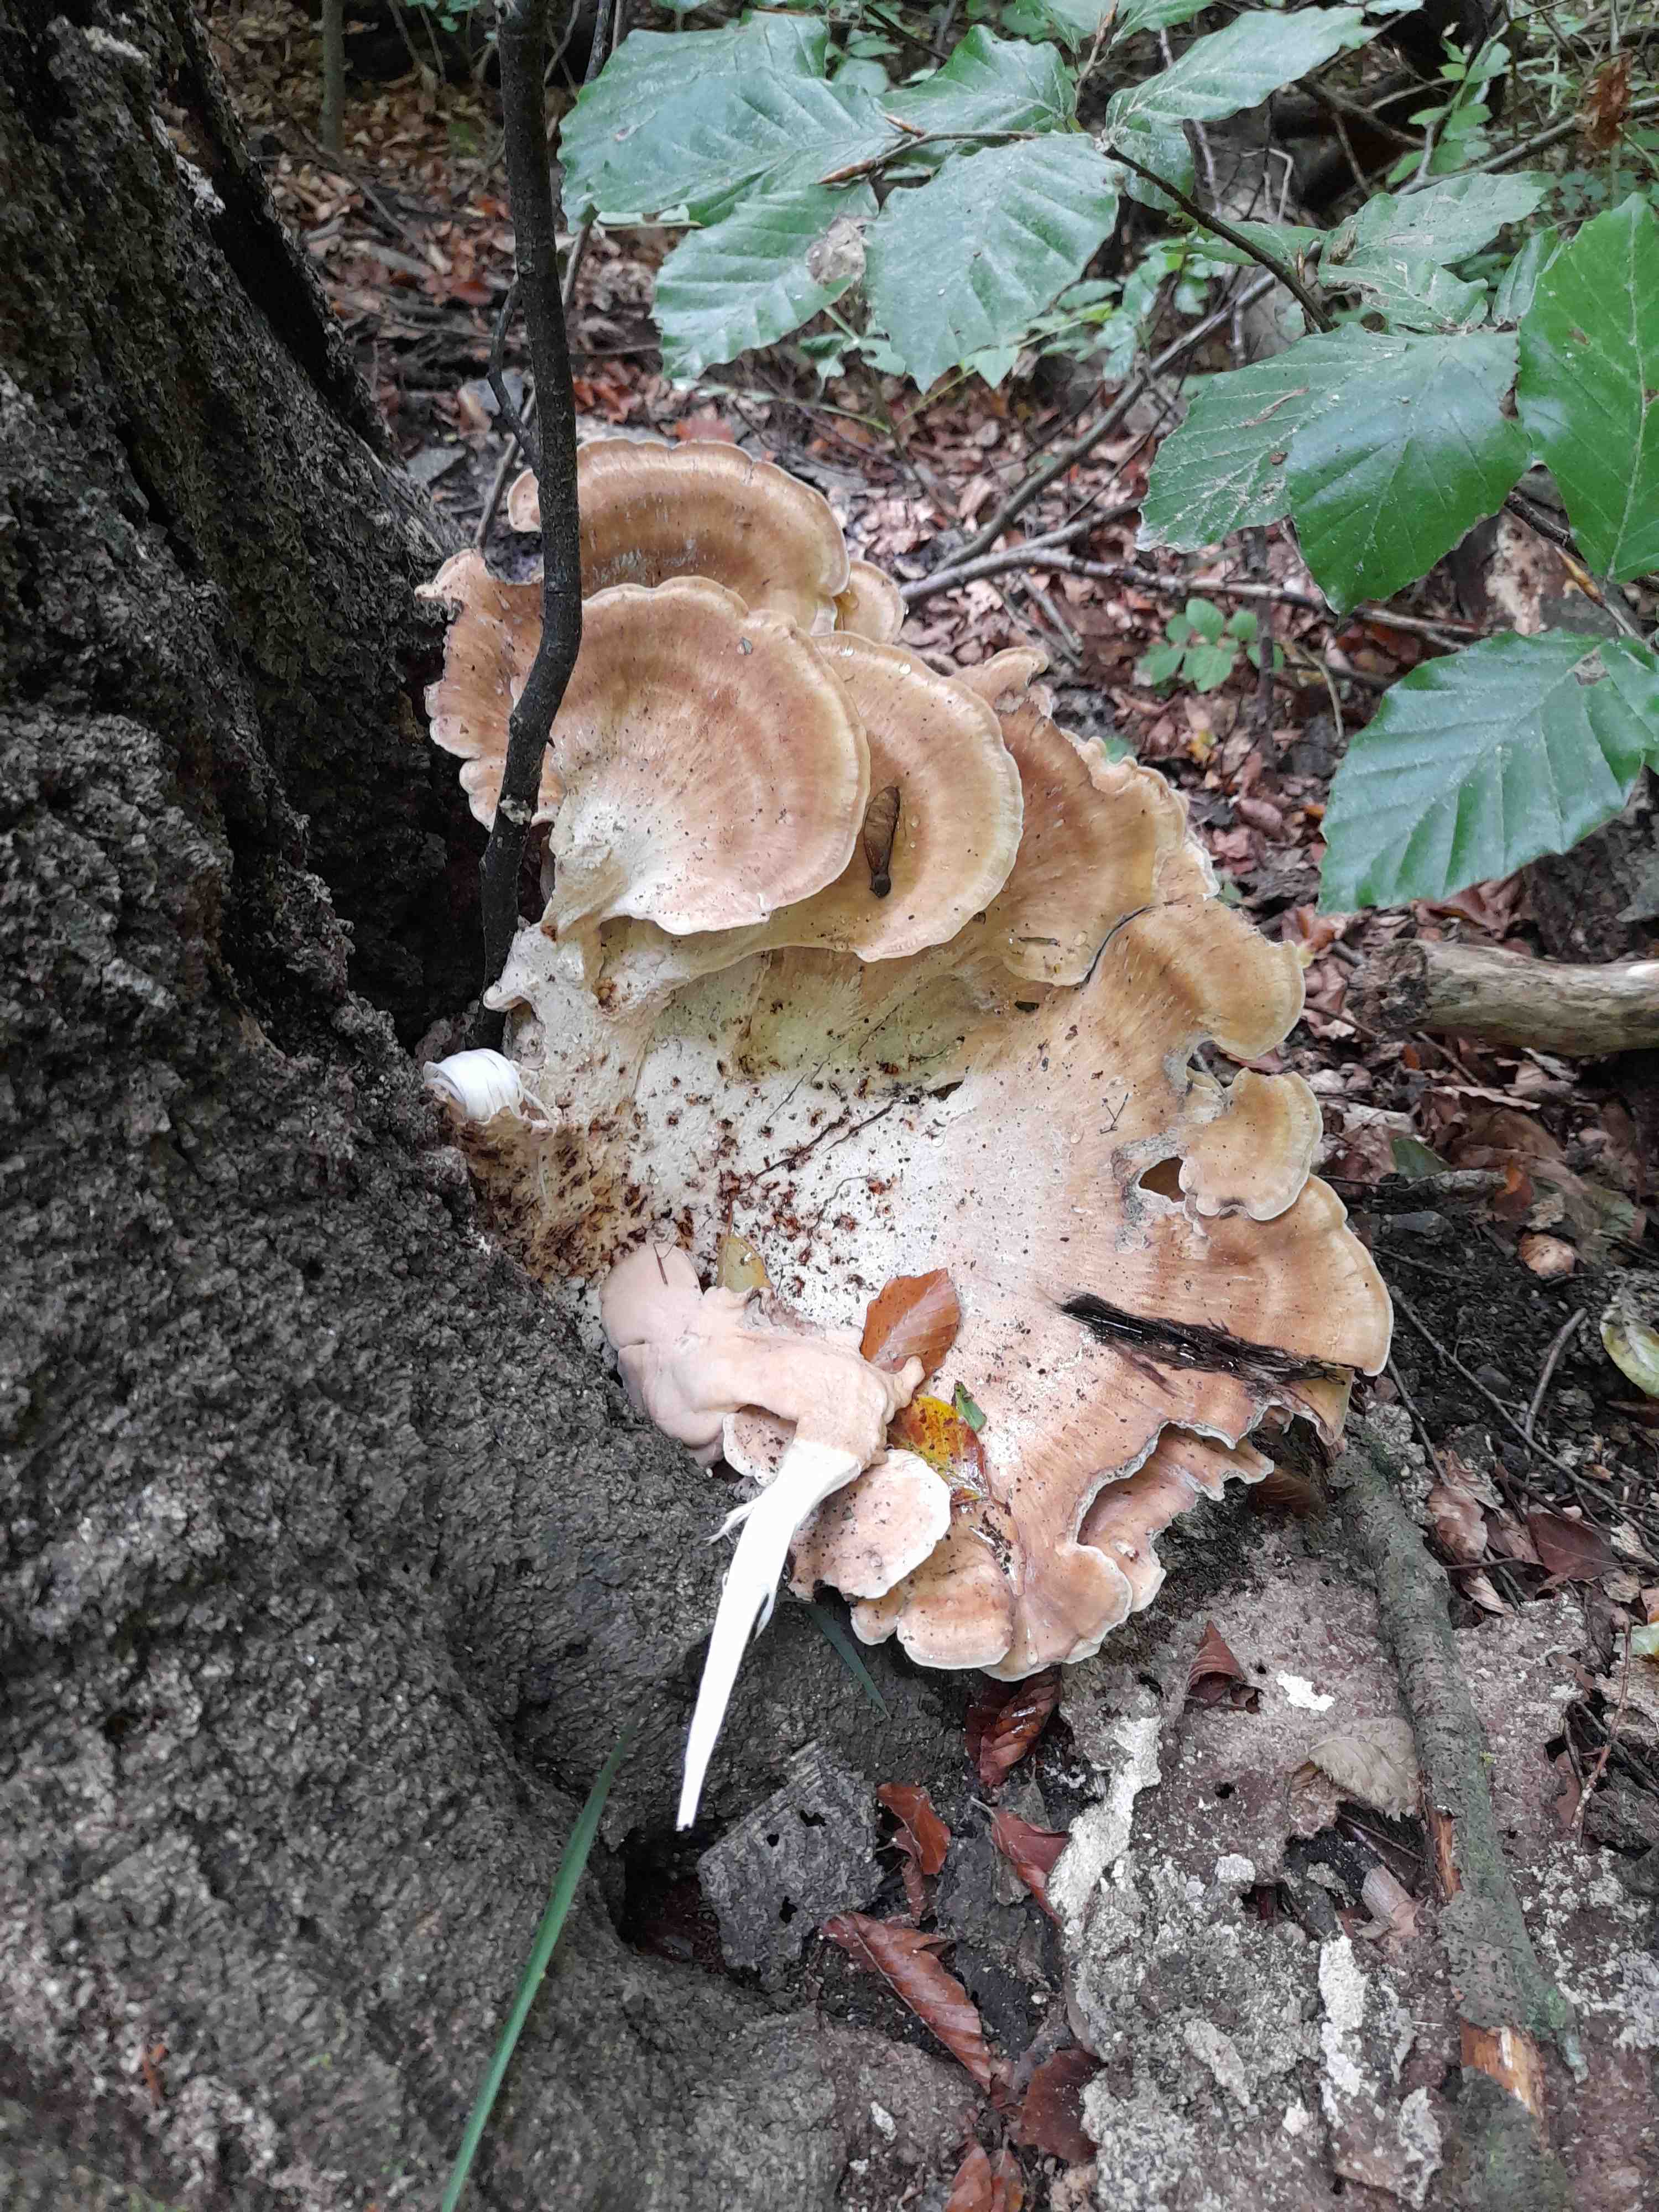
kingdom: Fungi
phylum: Basidiomycota
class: Agaricomycetes
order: Polyporales
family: Meripilaceae
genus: Meripilus
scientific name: Meripilus giganteus
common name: kæmpeporesvamp
